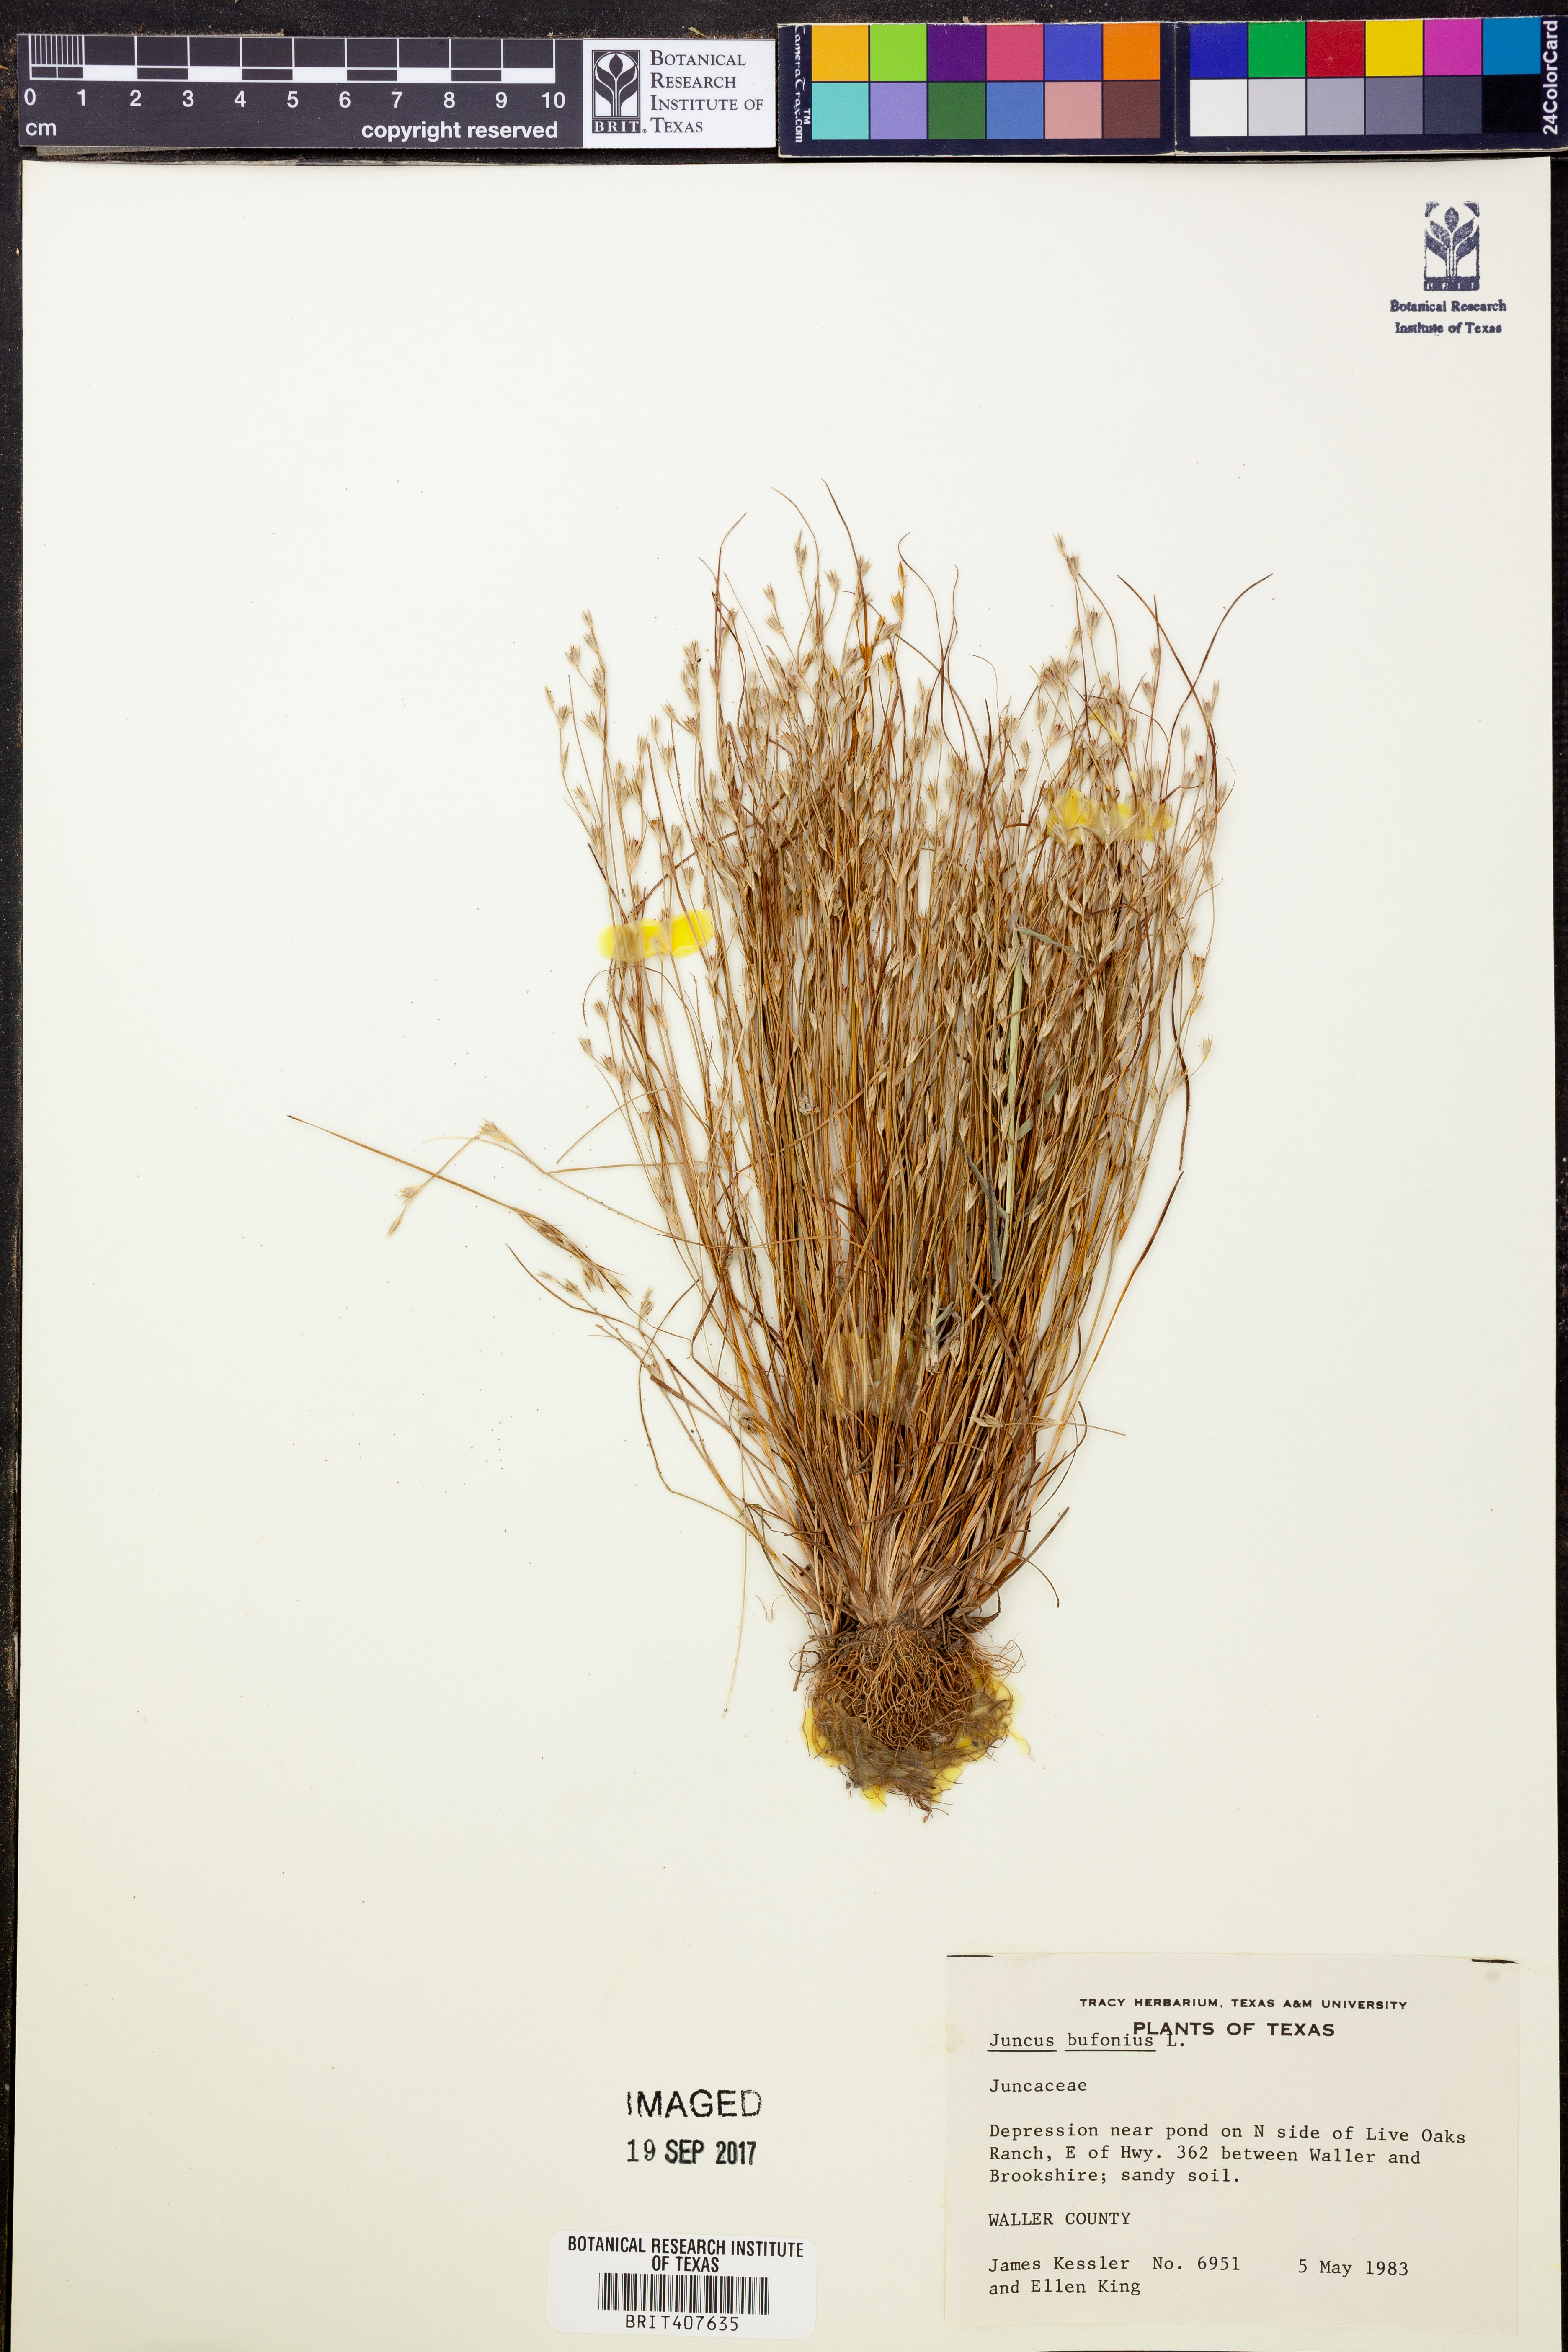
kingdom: Plantae
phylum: Tracheophyta
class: Liliopsida
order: Poales
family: Juncaceae
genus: Juncus
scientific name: Juncus bufonius
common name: Toad rush
